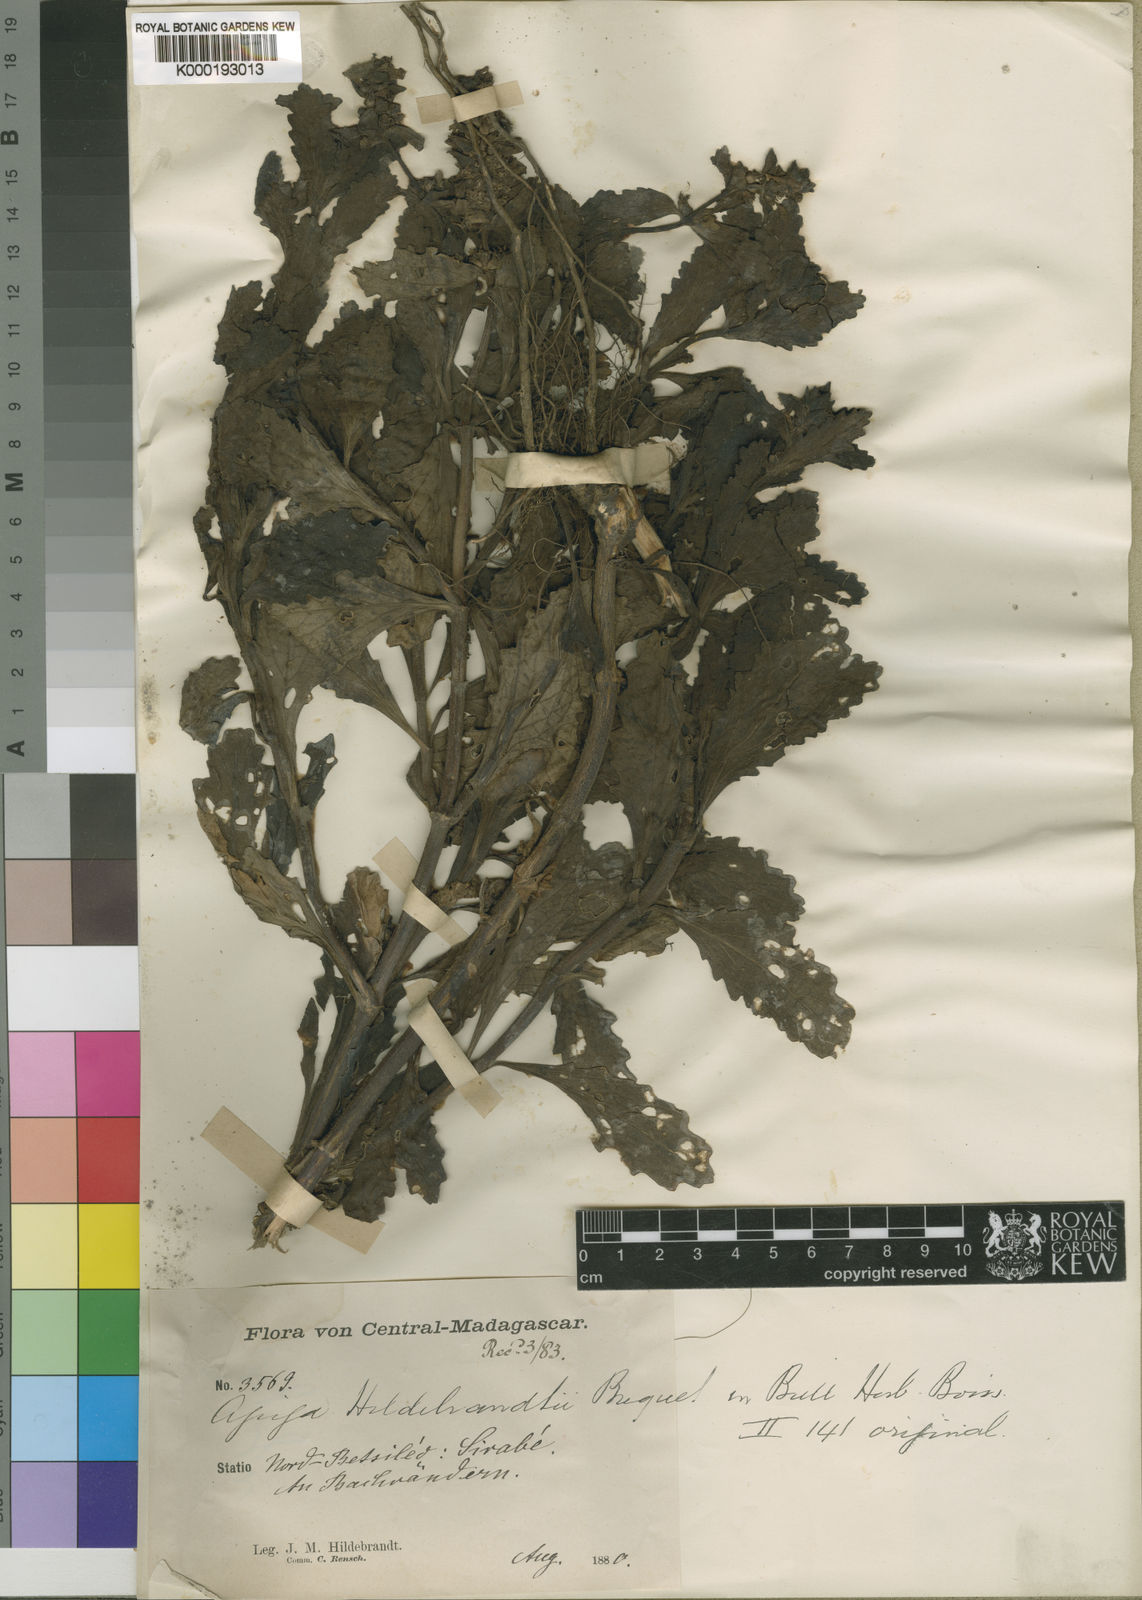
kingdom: Plantae
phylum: Tracheophyta
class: Magnoliopsida
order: Lamiales
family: Lamiaceae
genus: Ajuga
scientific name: Ajuga robusta
